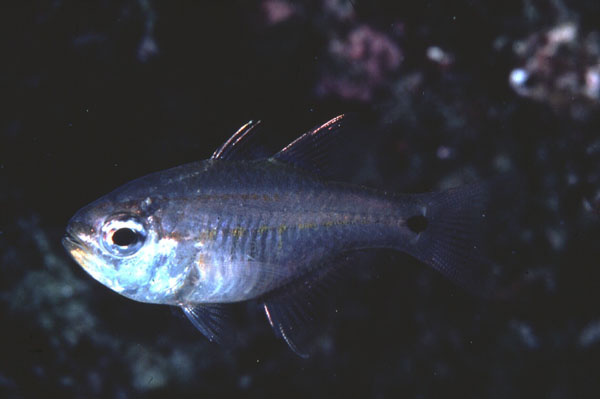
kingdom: Animalia
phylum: Chordata
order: Perciformes
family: Apogonidae
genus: Taeniamia
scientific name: Taeniamia mozambiquensis
